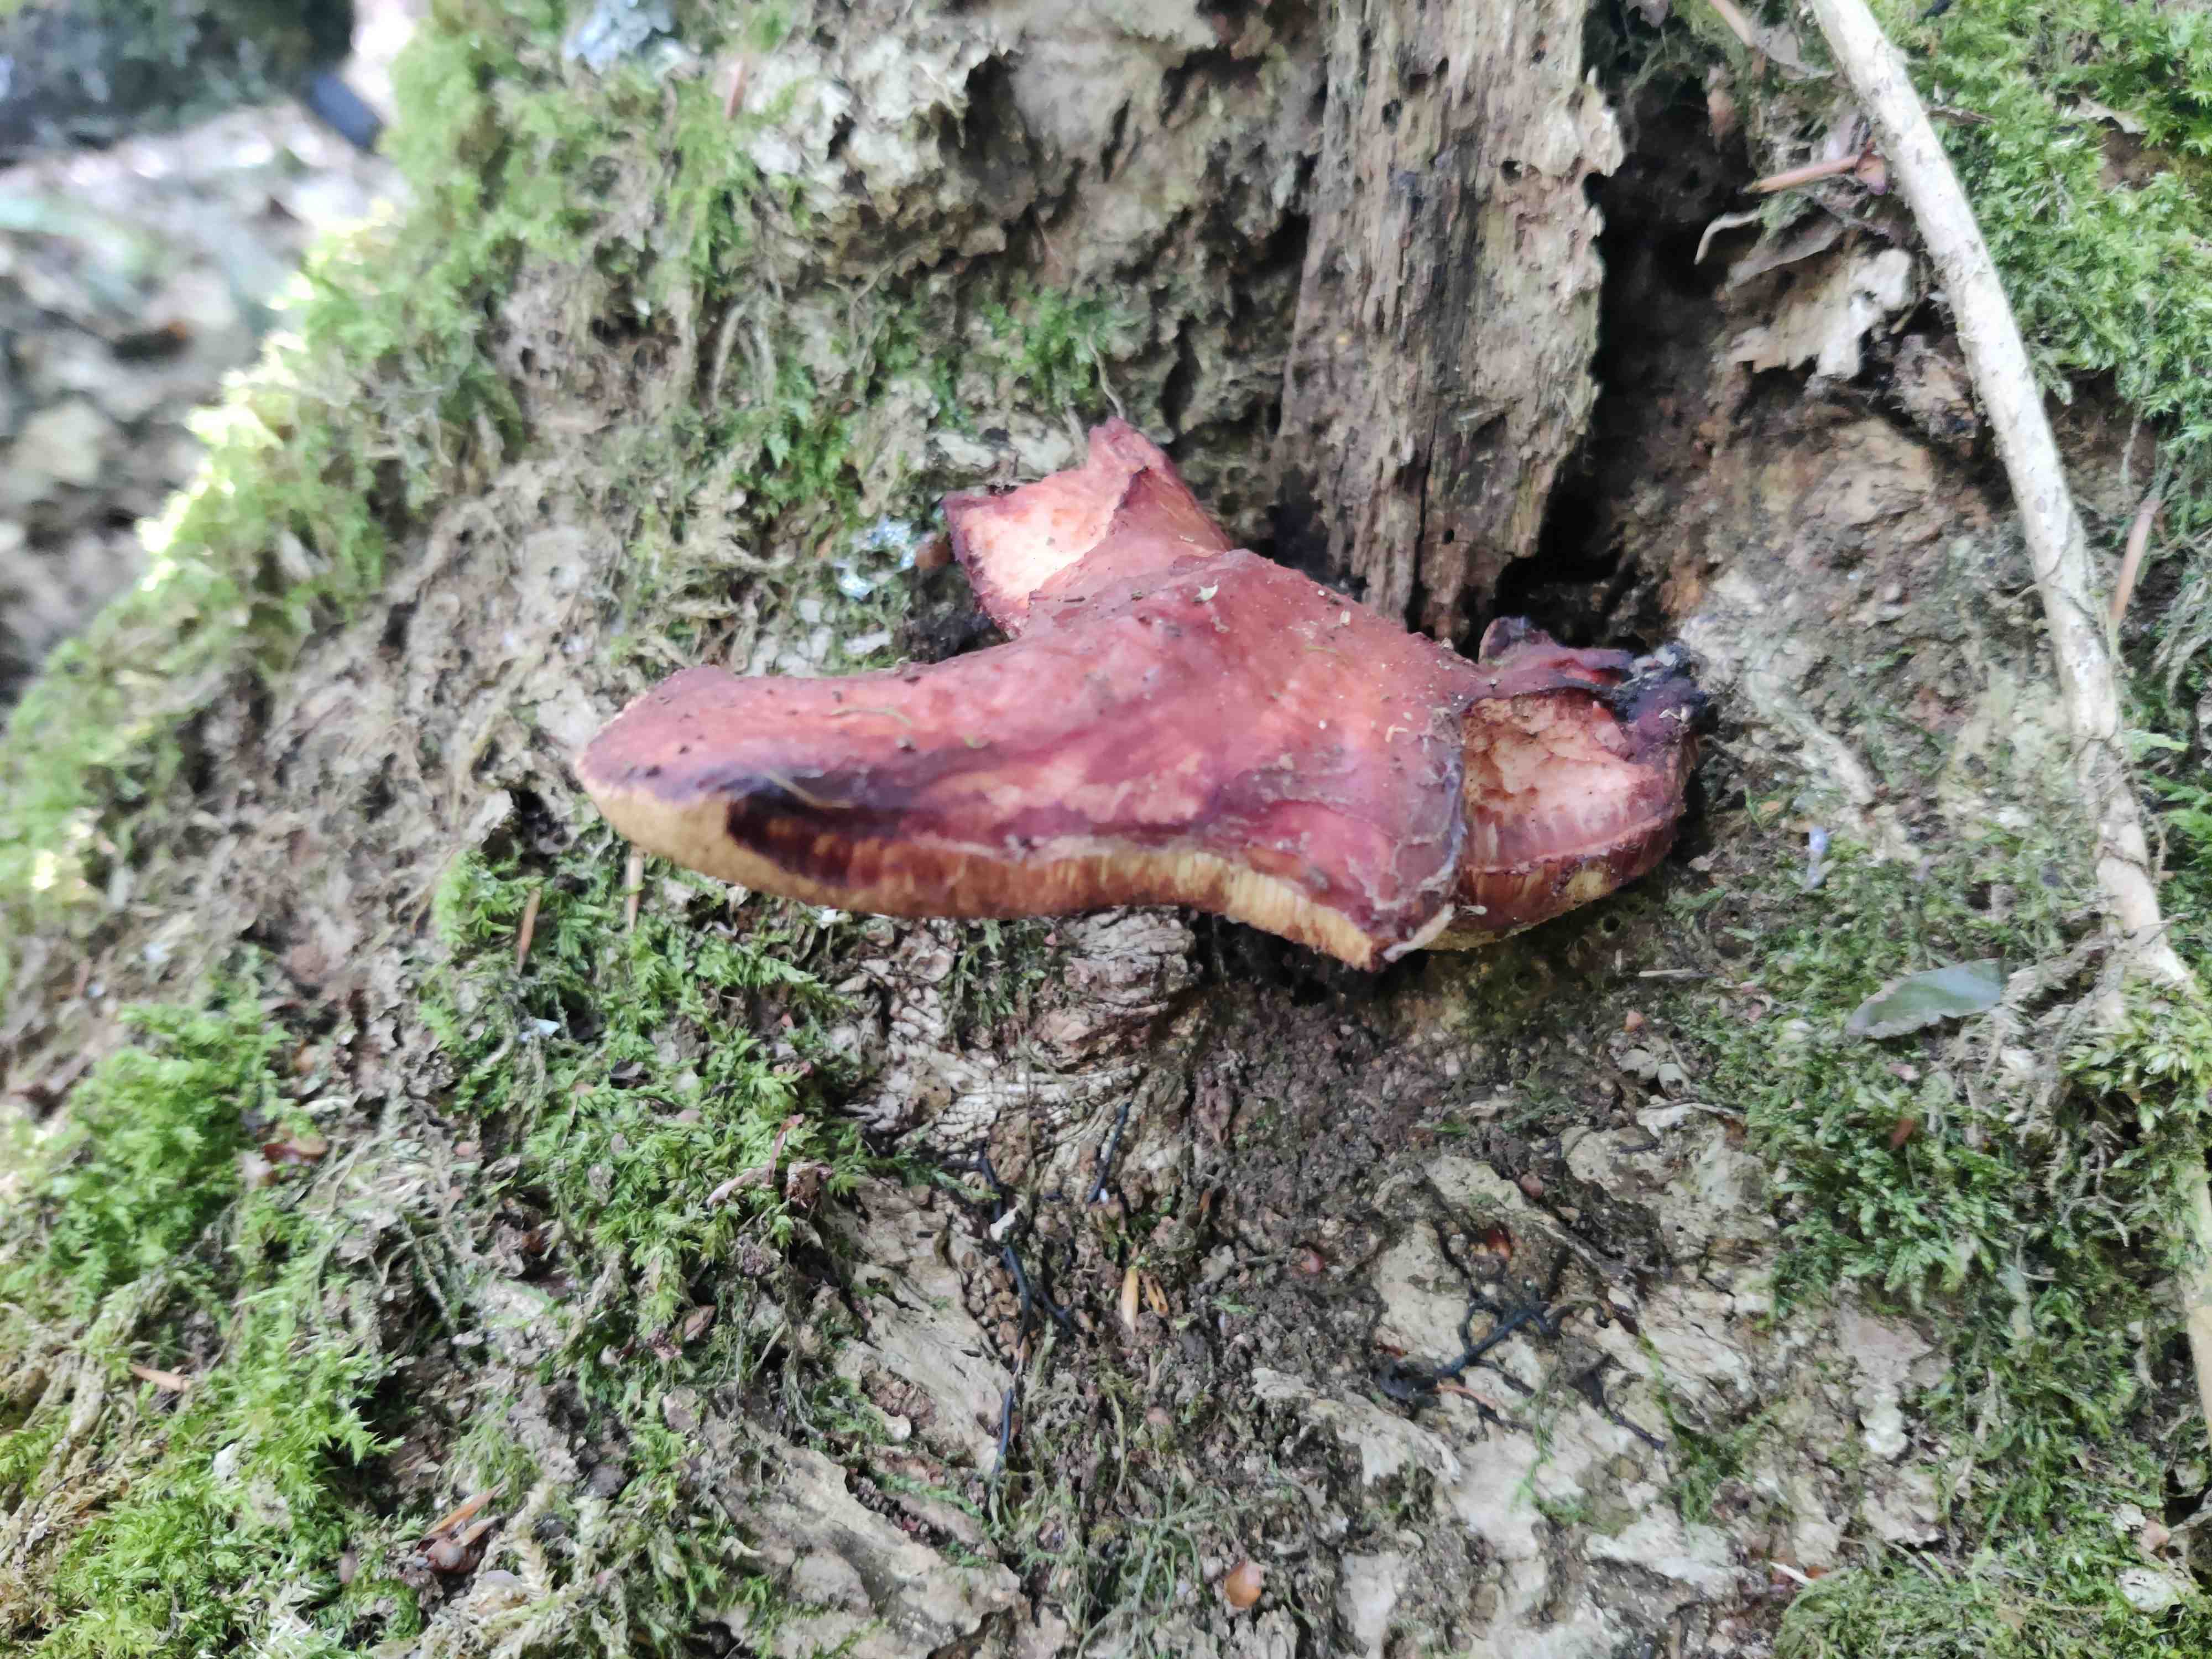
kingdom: Fungi
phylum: Basidiomycota
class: Agaricomycetes
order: Agaricales
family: Fistulinaceae
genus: Fistulina
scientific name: Fistulina hepatica
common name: oksetunge
